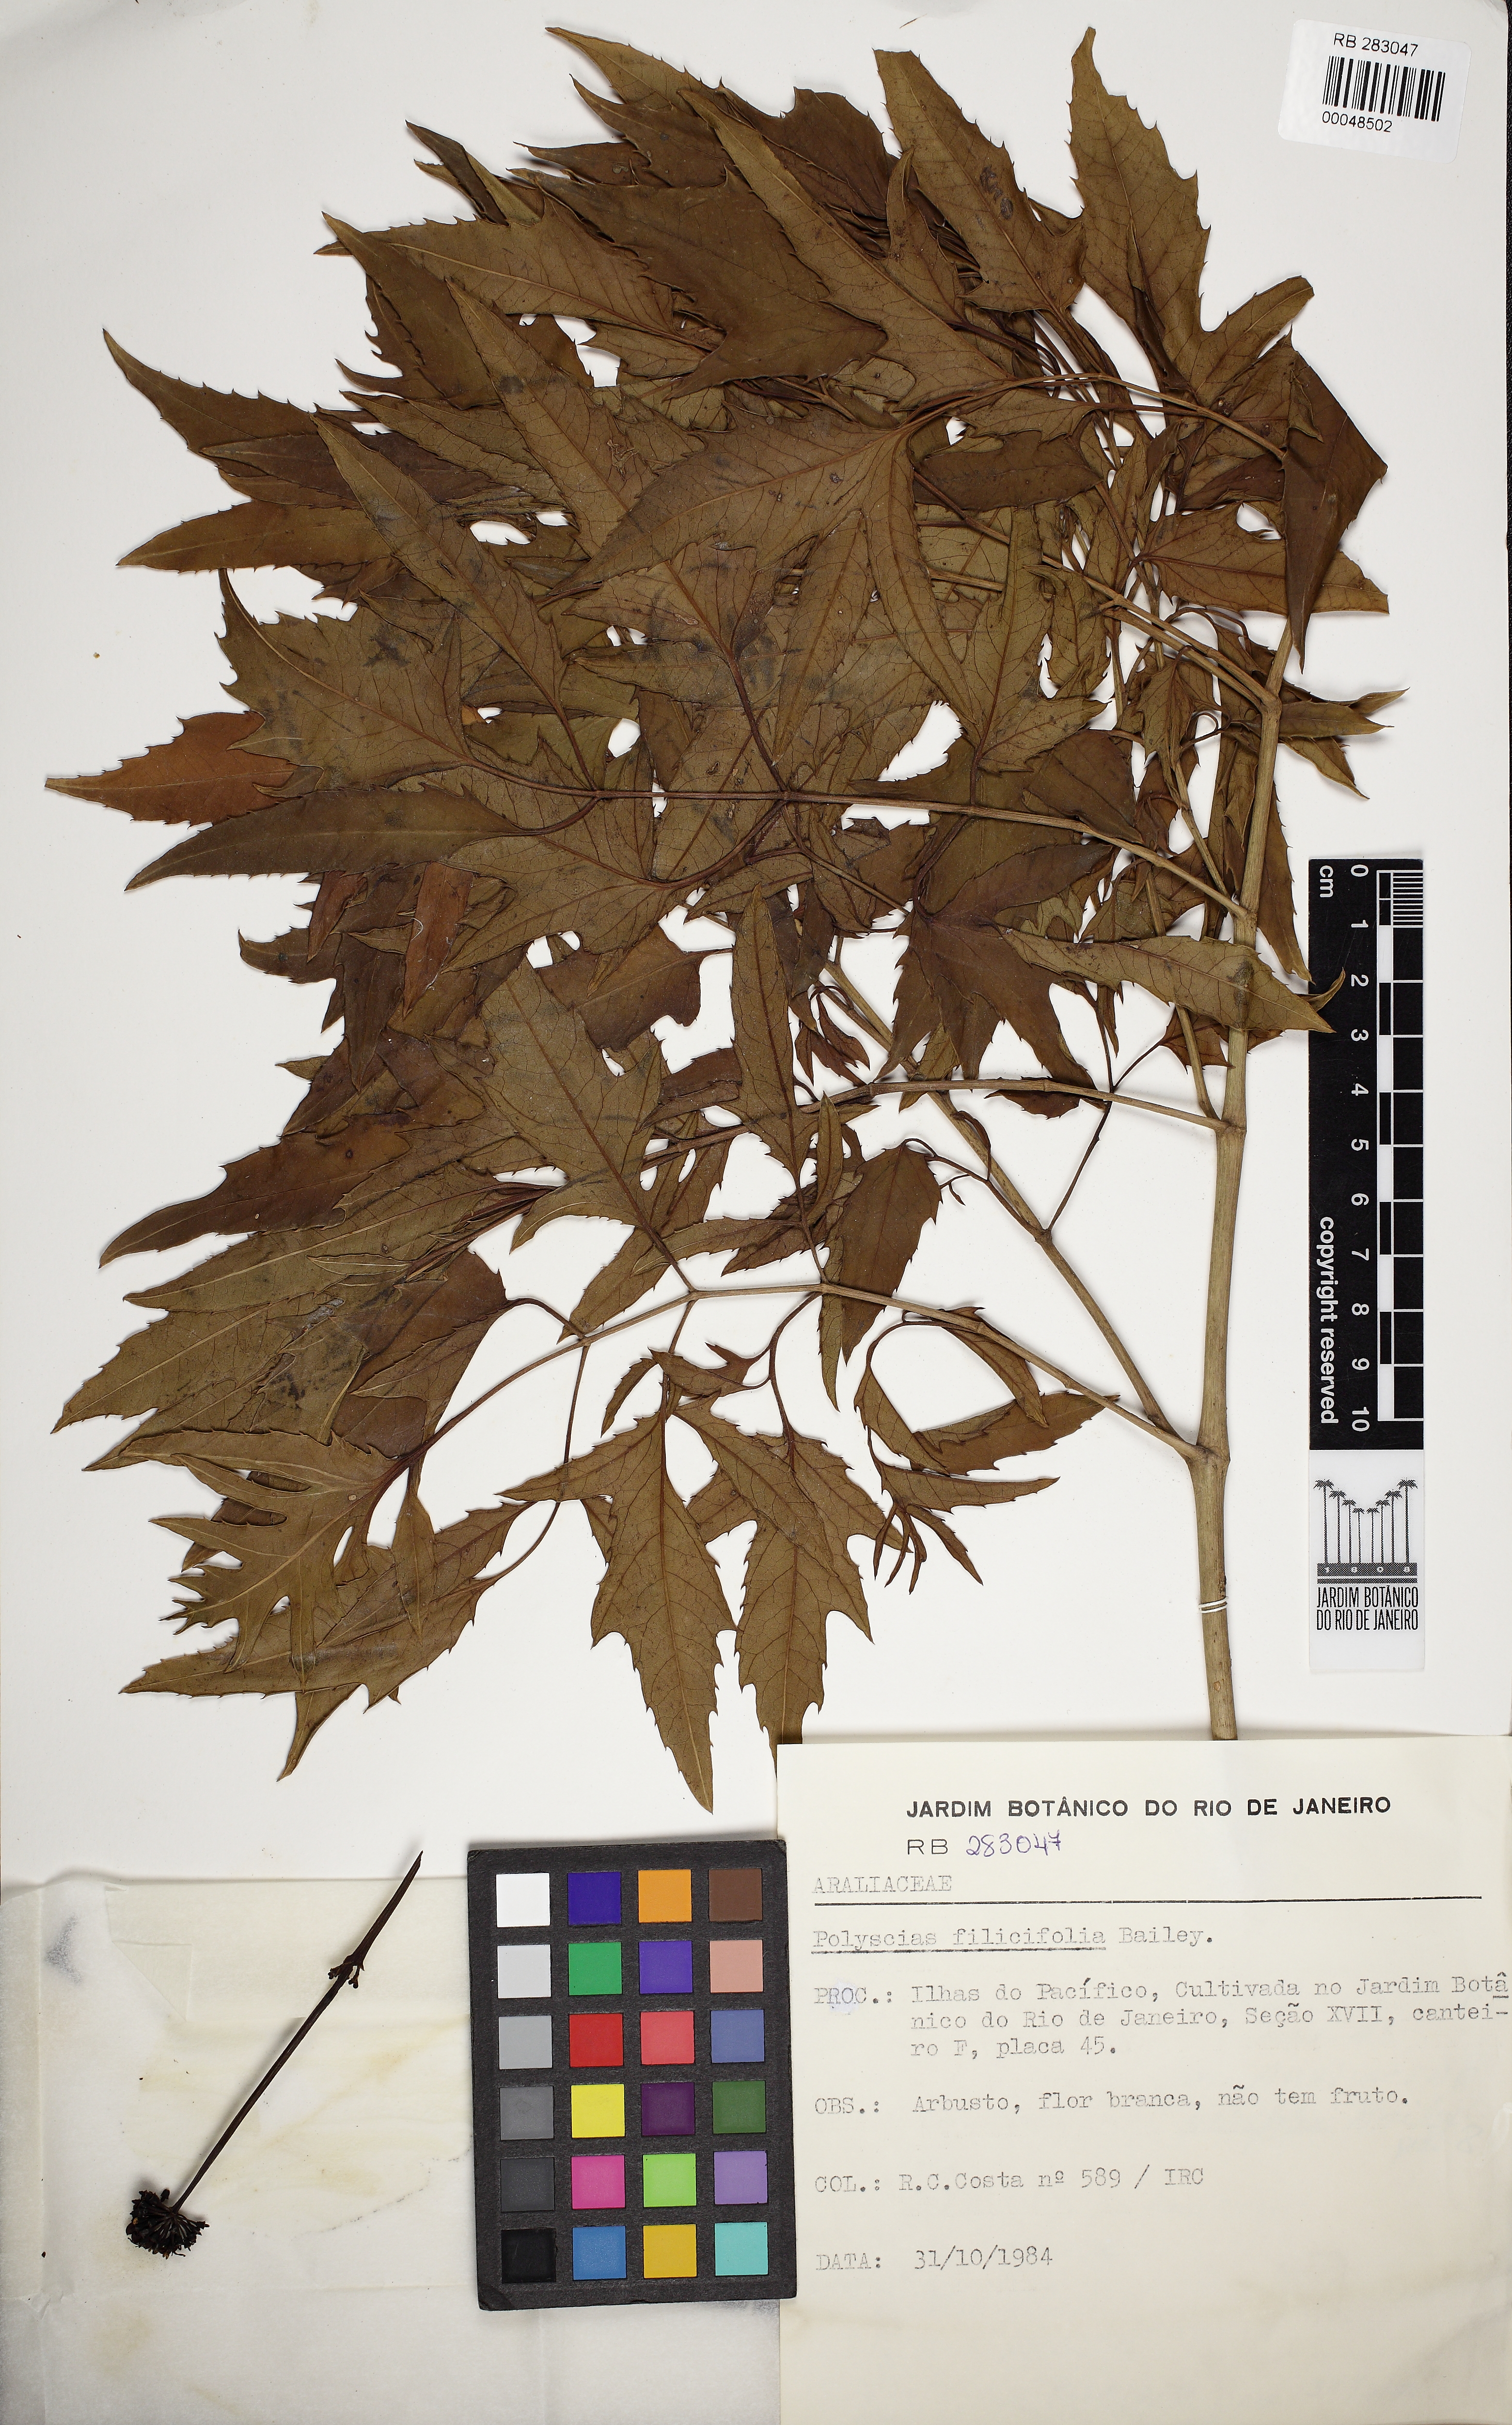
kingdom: Plantae
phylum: Tracheophyta
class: Magnoliopsida
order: Apiales
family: Araliaceae
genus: Polyscias
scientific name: Polyscias filicifolia
